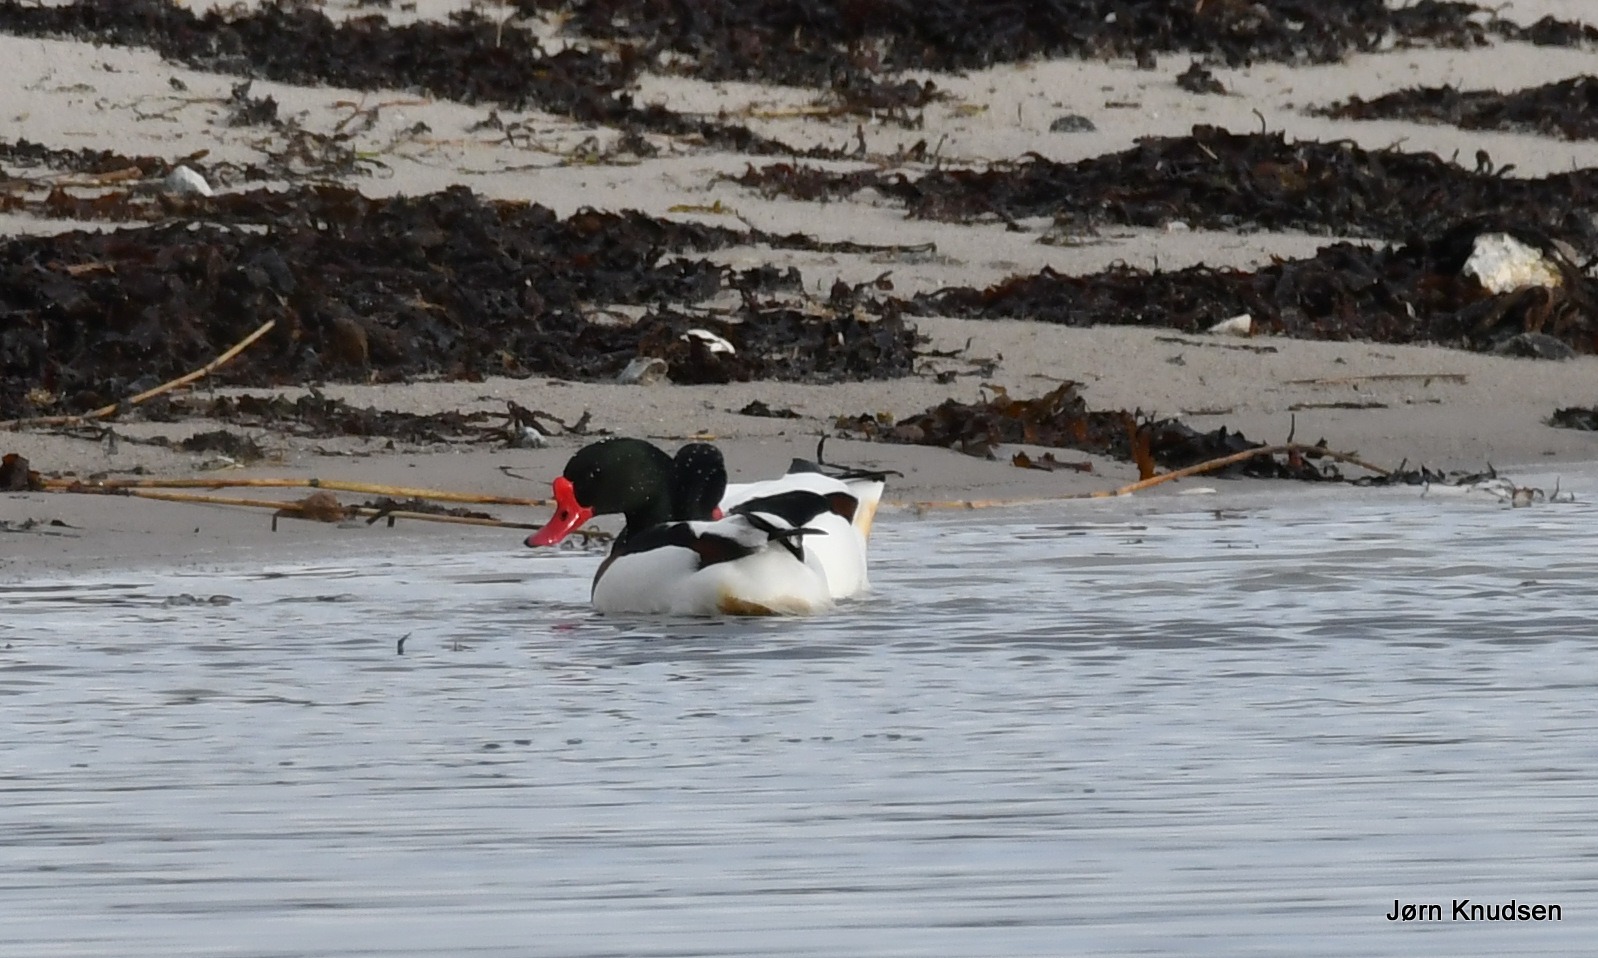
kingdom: Animalia
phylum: Chordata
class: Aves
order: Anseriformes
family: Anatidae
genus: Tadorna
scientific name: Tadorna tadorna
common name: Gravand
